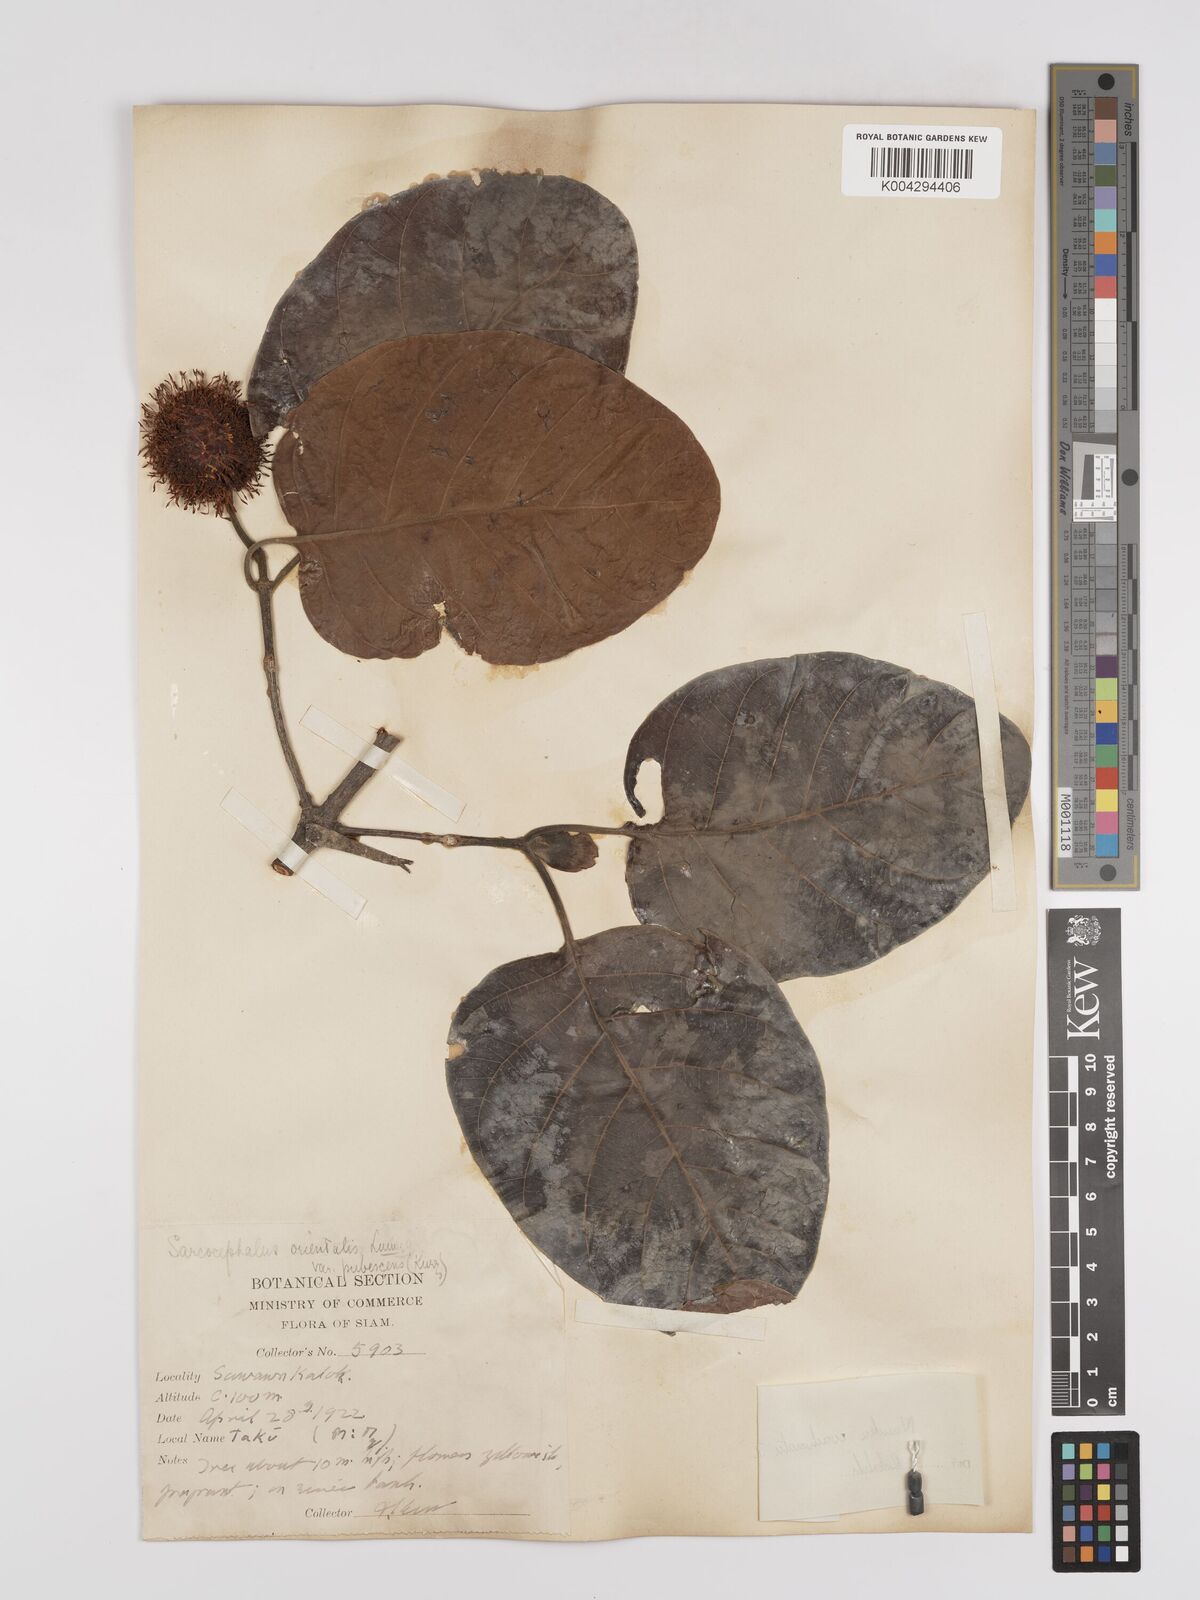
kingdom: Plantae
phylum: Tracheophyta
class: Magnoliopsida
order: Gentianales
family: Rubiaceae
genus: Nauclea
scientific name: Nauclea orientalis
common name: Leichhardt-pine
